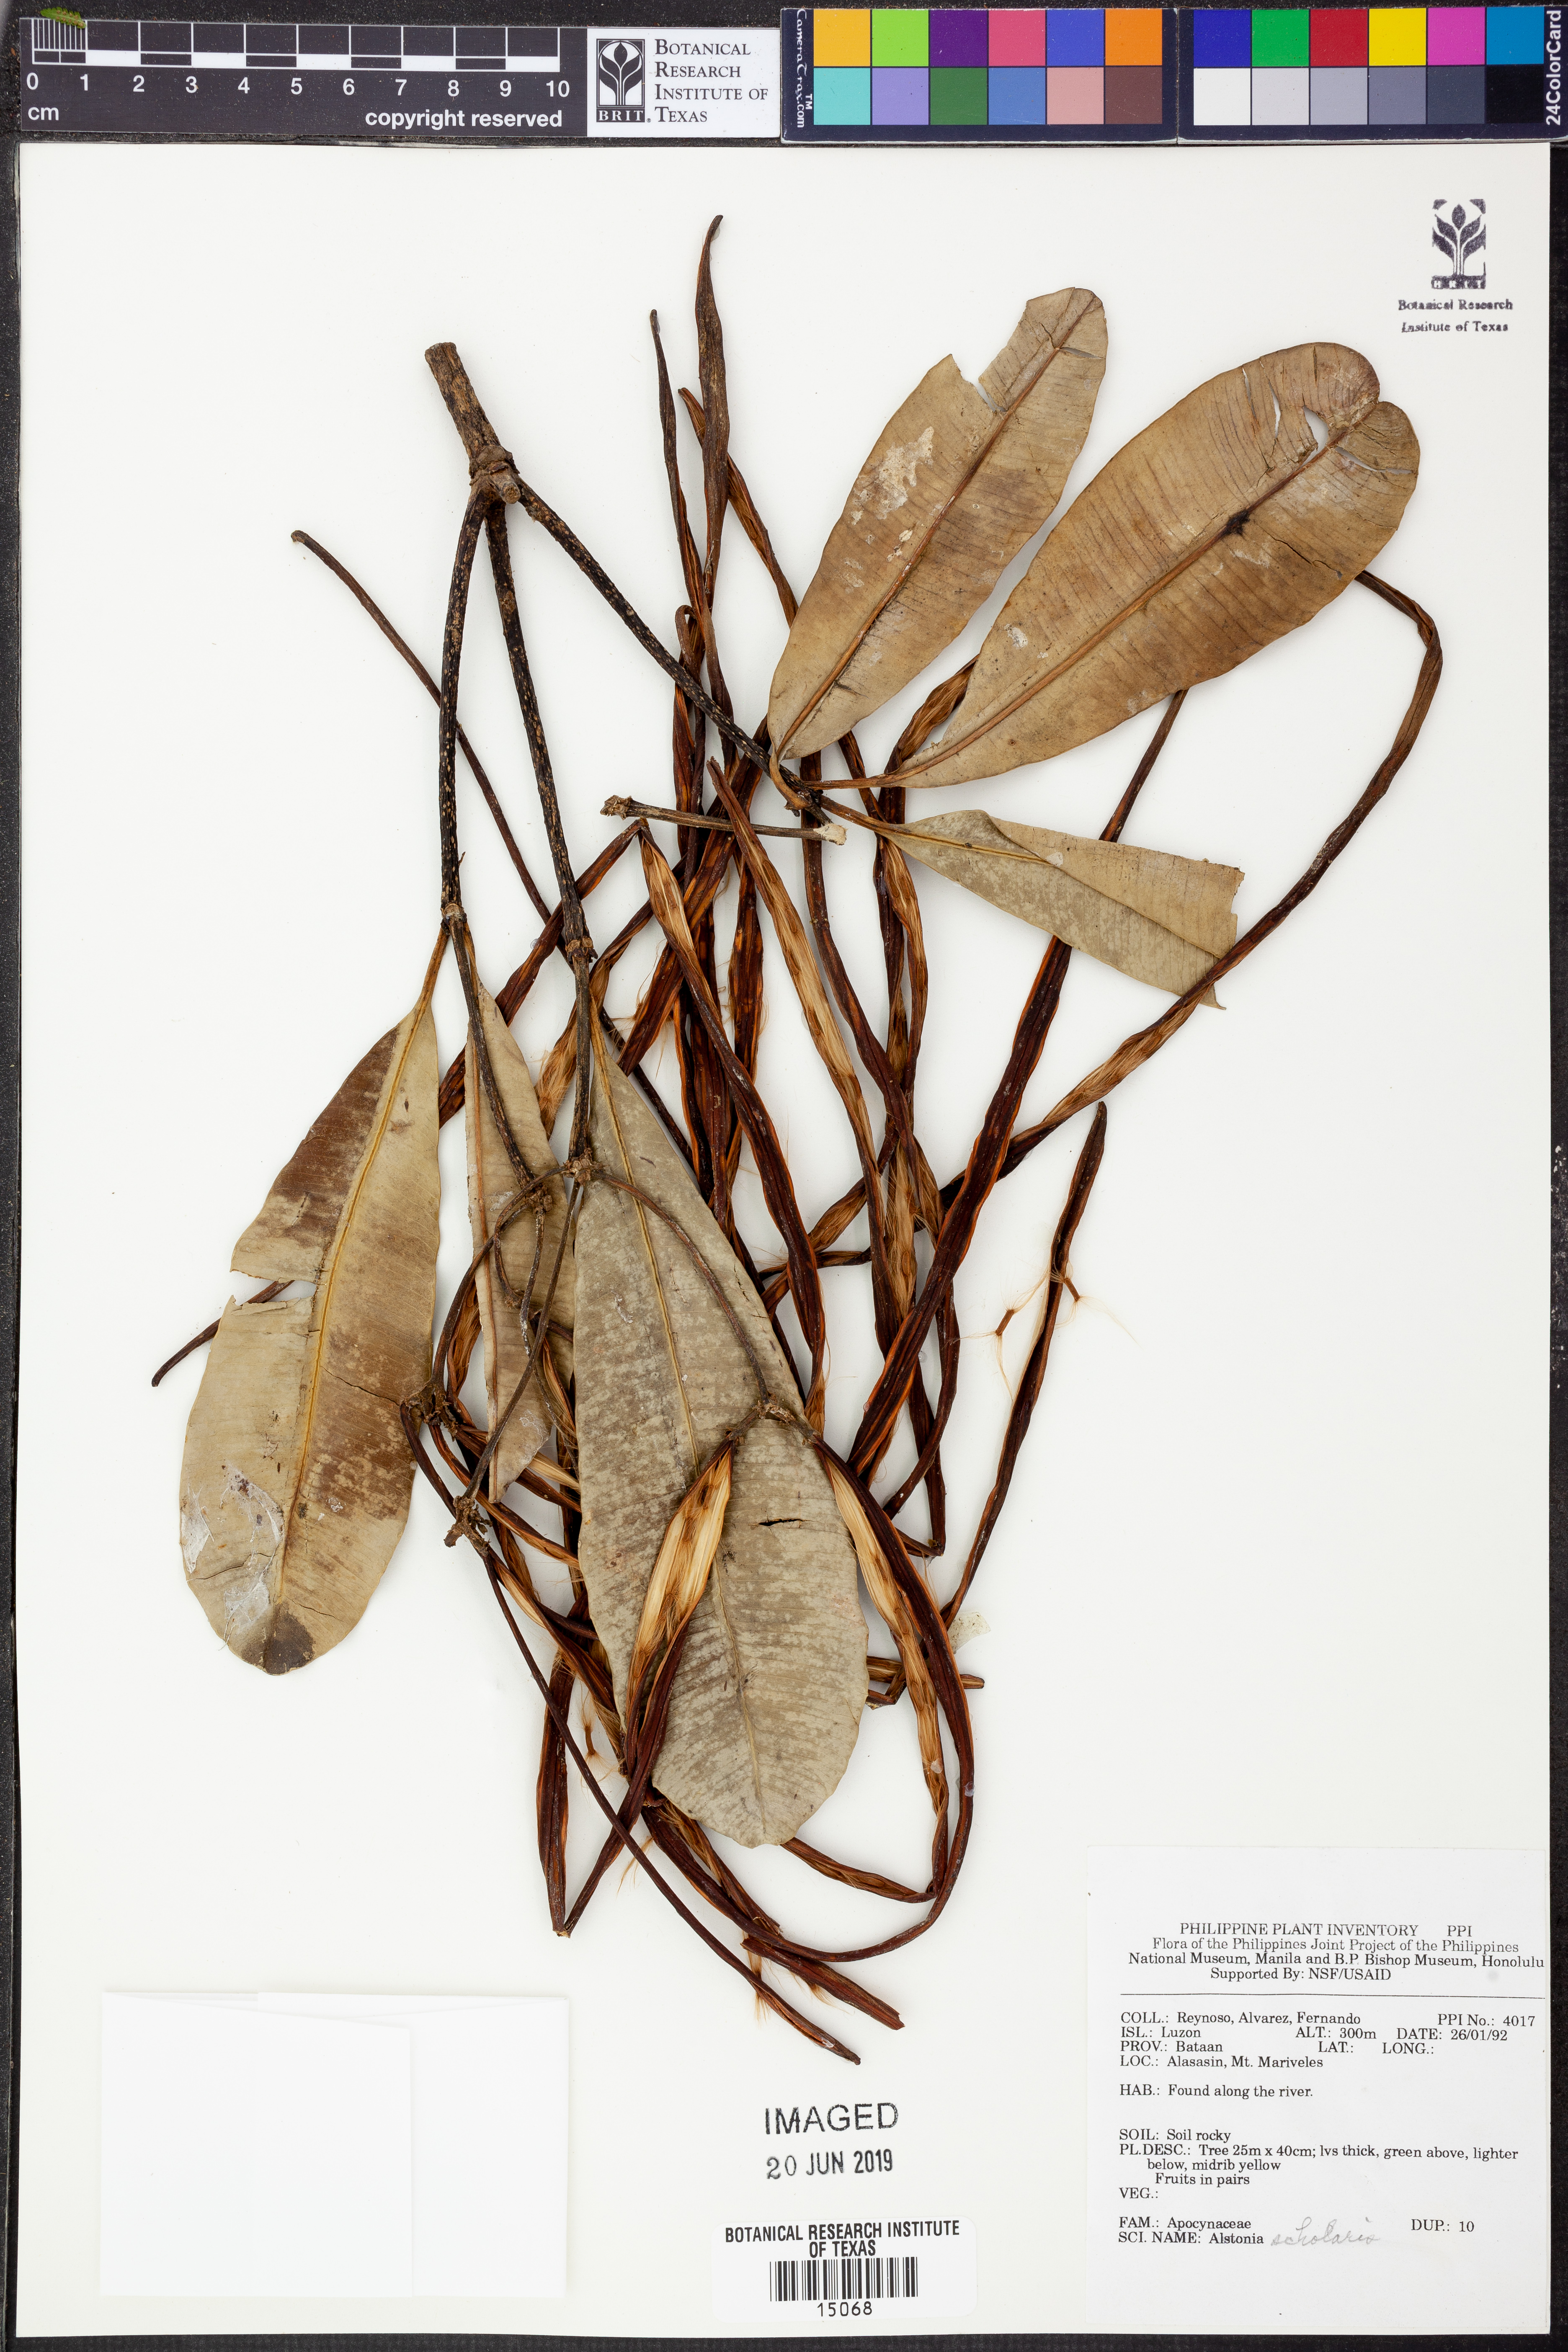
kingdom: Plantae
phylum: Tracheophyta
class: Magnoliopsida
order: Gentianales
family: Apocynaceae
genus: Alstonia
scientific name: Alstonia scholaris
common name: White cheesewood
